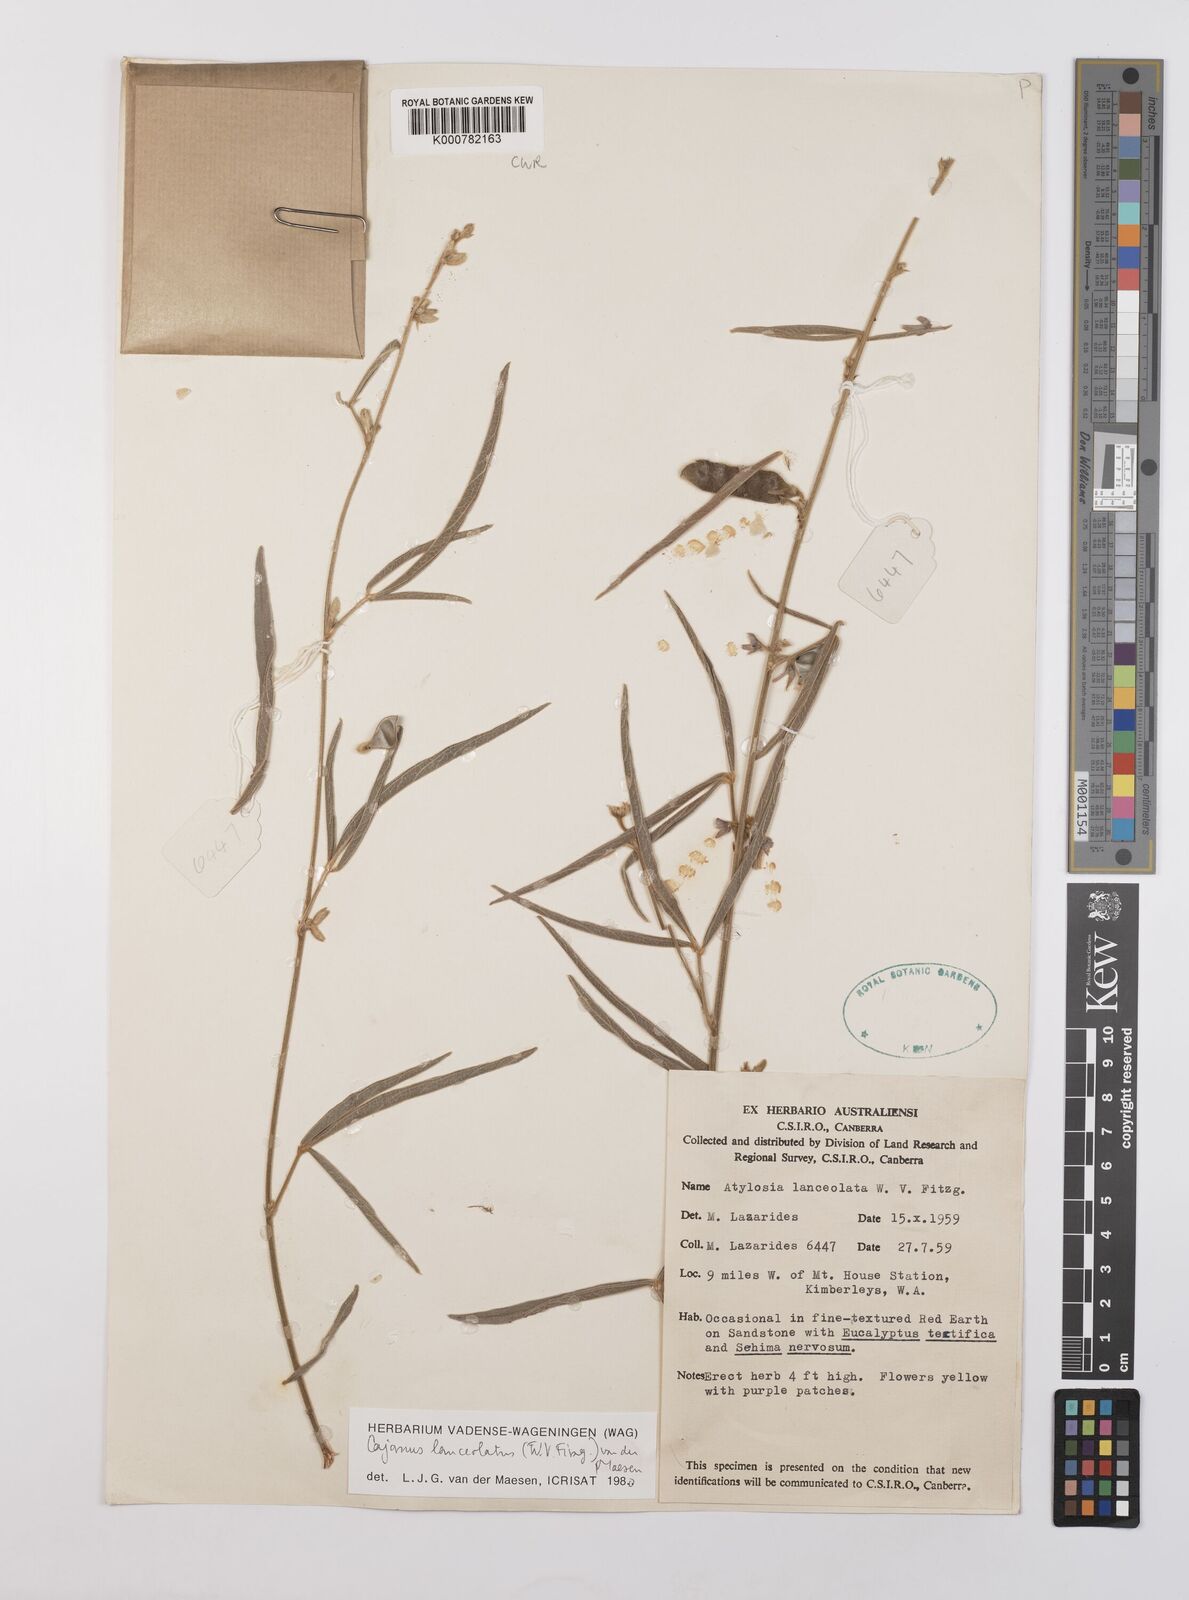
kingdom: Plantae
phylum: Tracheophyta
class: Magnoliopsida
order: Fabales
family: Fabaceae
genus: Cajanus
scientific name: Cajanus lanceolatus
